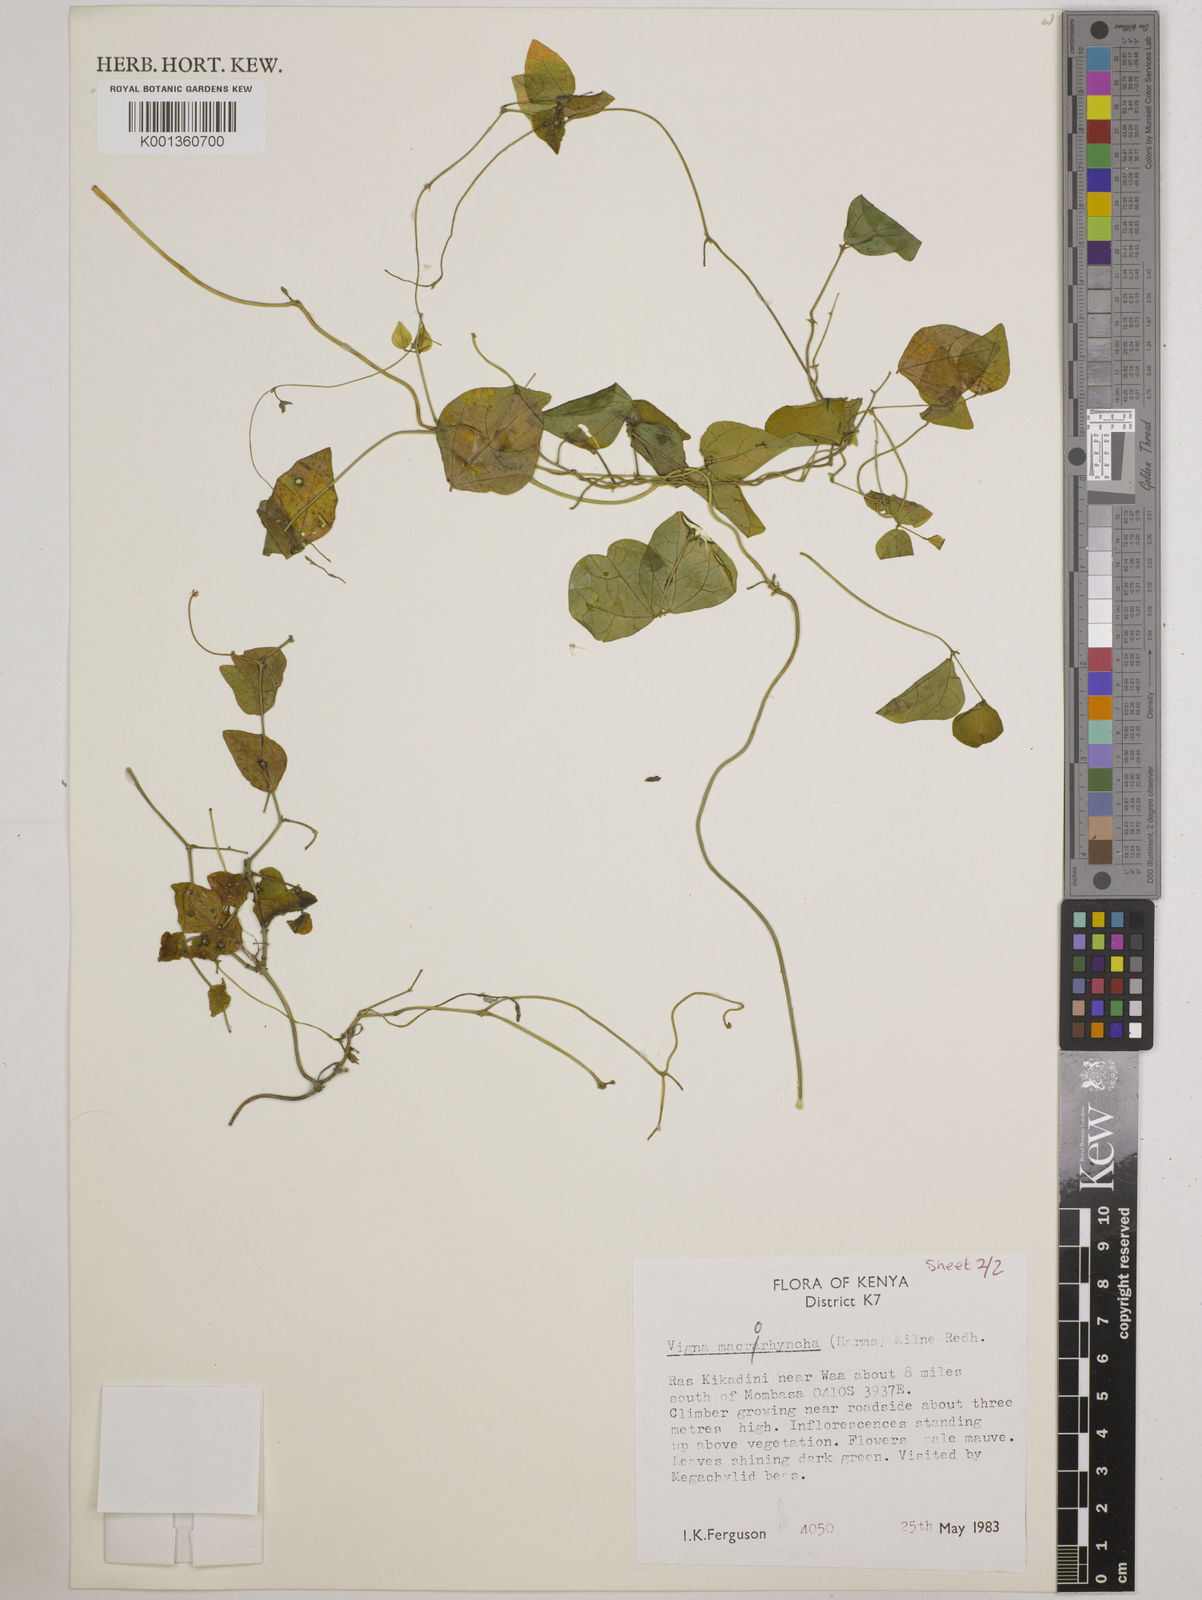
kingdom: Plantae
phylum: Tracheophyta
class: Magnoliopsida
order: Fabales
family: Fabaceae
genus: Wajira
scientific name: Wajira grahamiana
